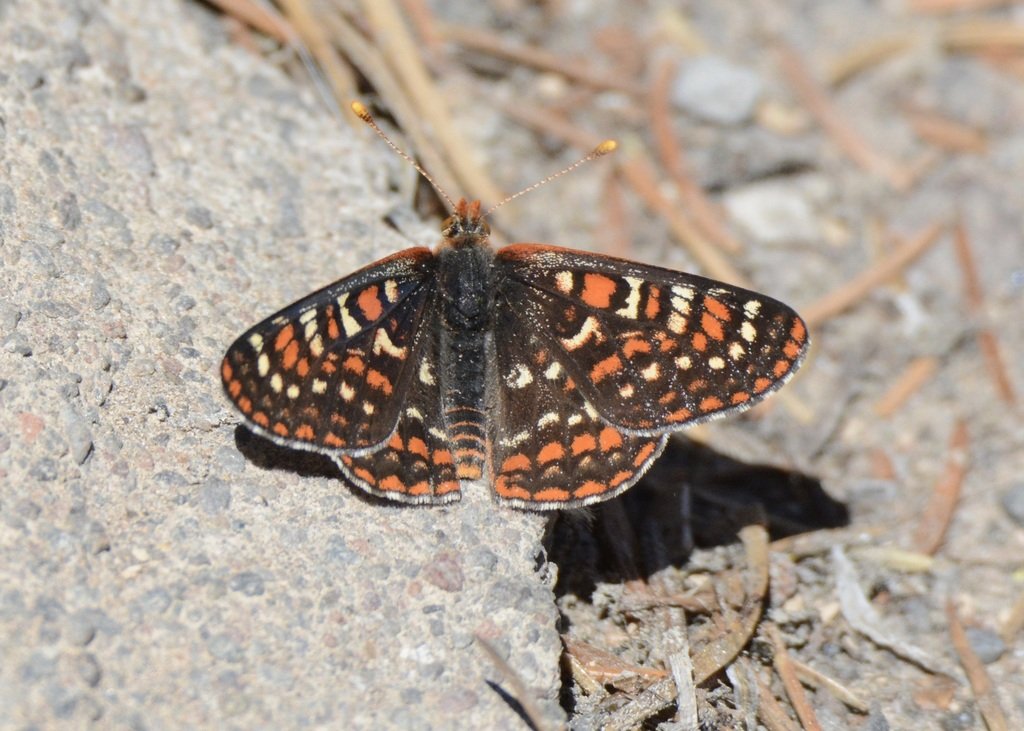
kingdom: Animalia
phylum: Arthropoda
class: Insecta
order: Lepidoptera
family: Nymphalidae
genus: Occidryas
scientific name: Occidryas editha
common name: Edith's Checkerspot
